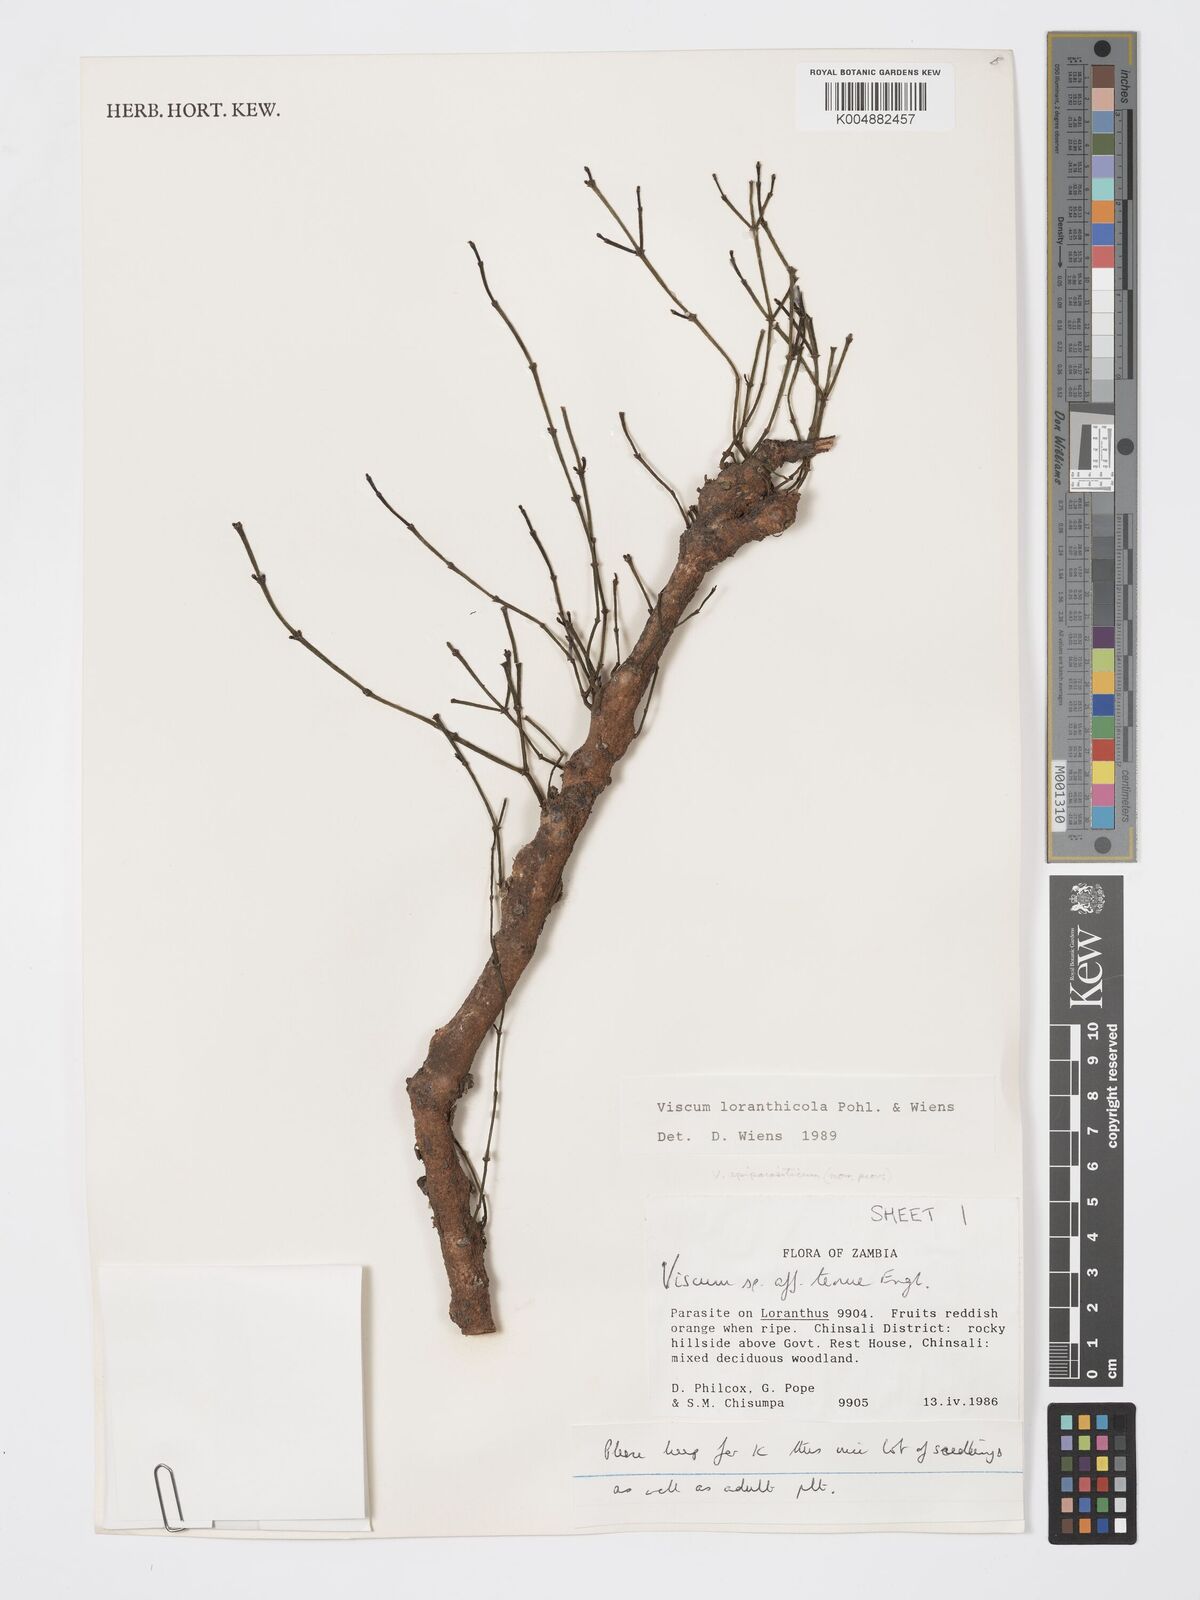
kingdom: Plantae
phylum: Tracheophyta
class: Magnoliopsida
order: Santalales
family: Viscaceae
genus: Viscum
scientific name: Viscum loranthicola
